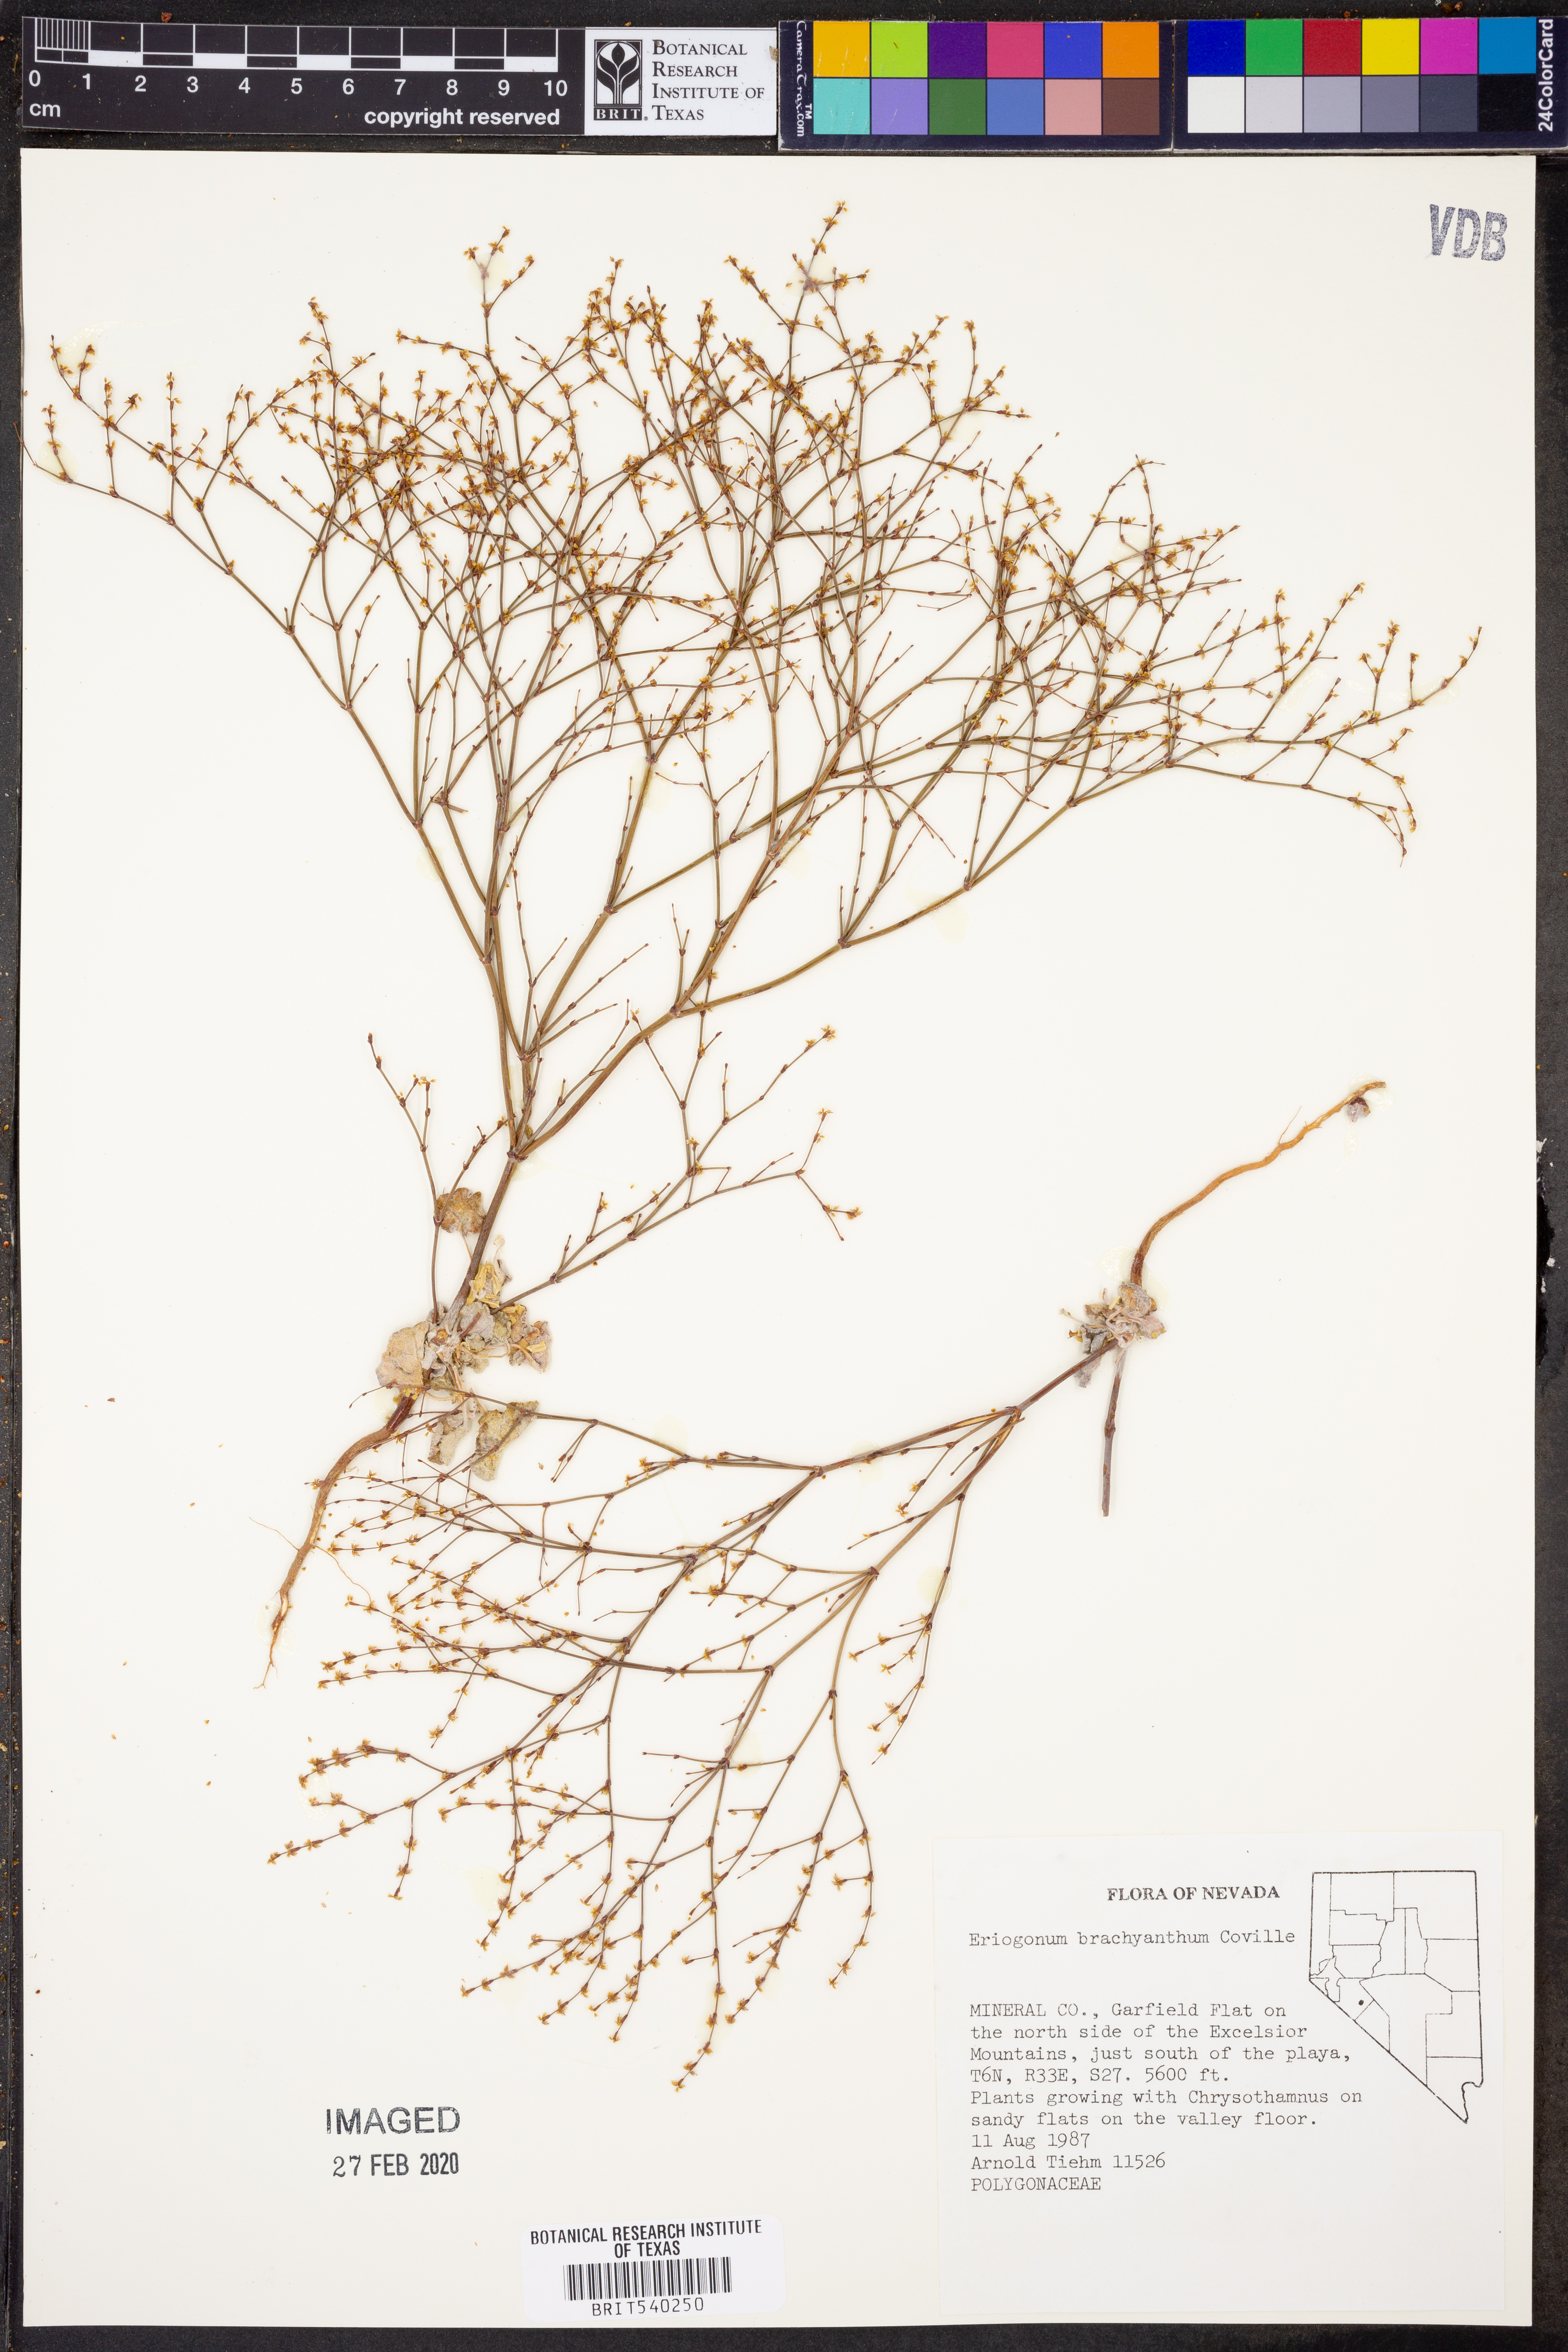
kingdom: Plantae
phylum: Tracheophyta
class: Magnoliopsida
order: Caryophyllales
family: Polygonaceae
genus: Eriogonum
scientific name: Eriogonum brachyanthum
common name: Short-flower wild buckwheat
